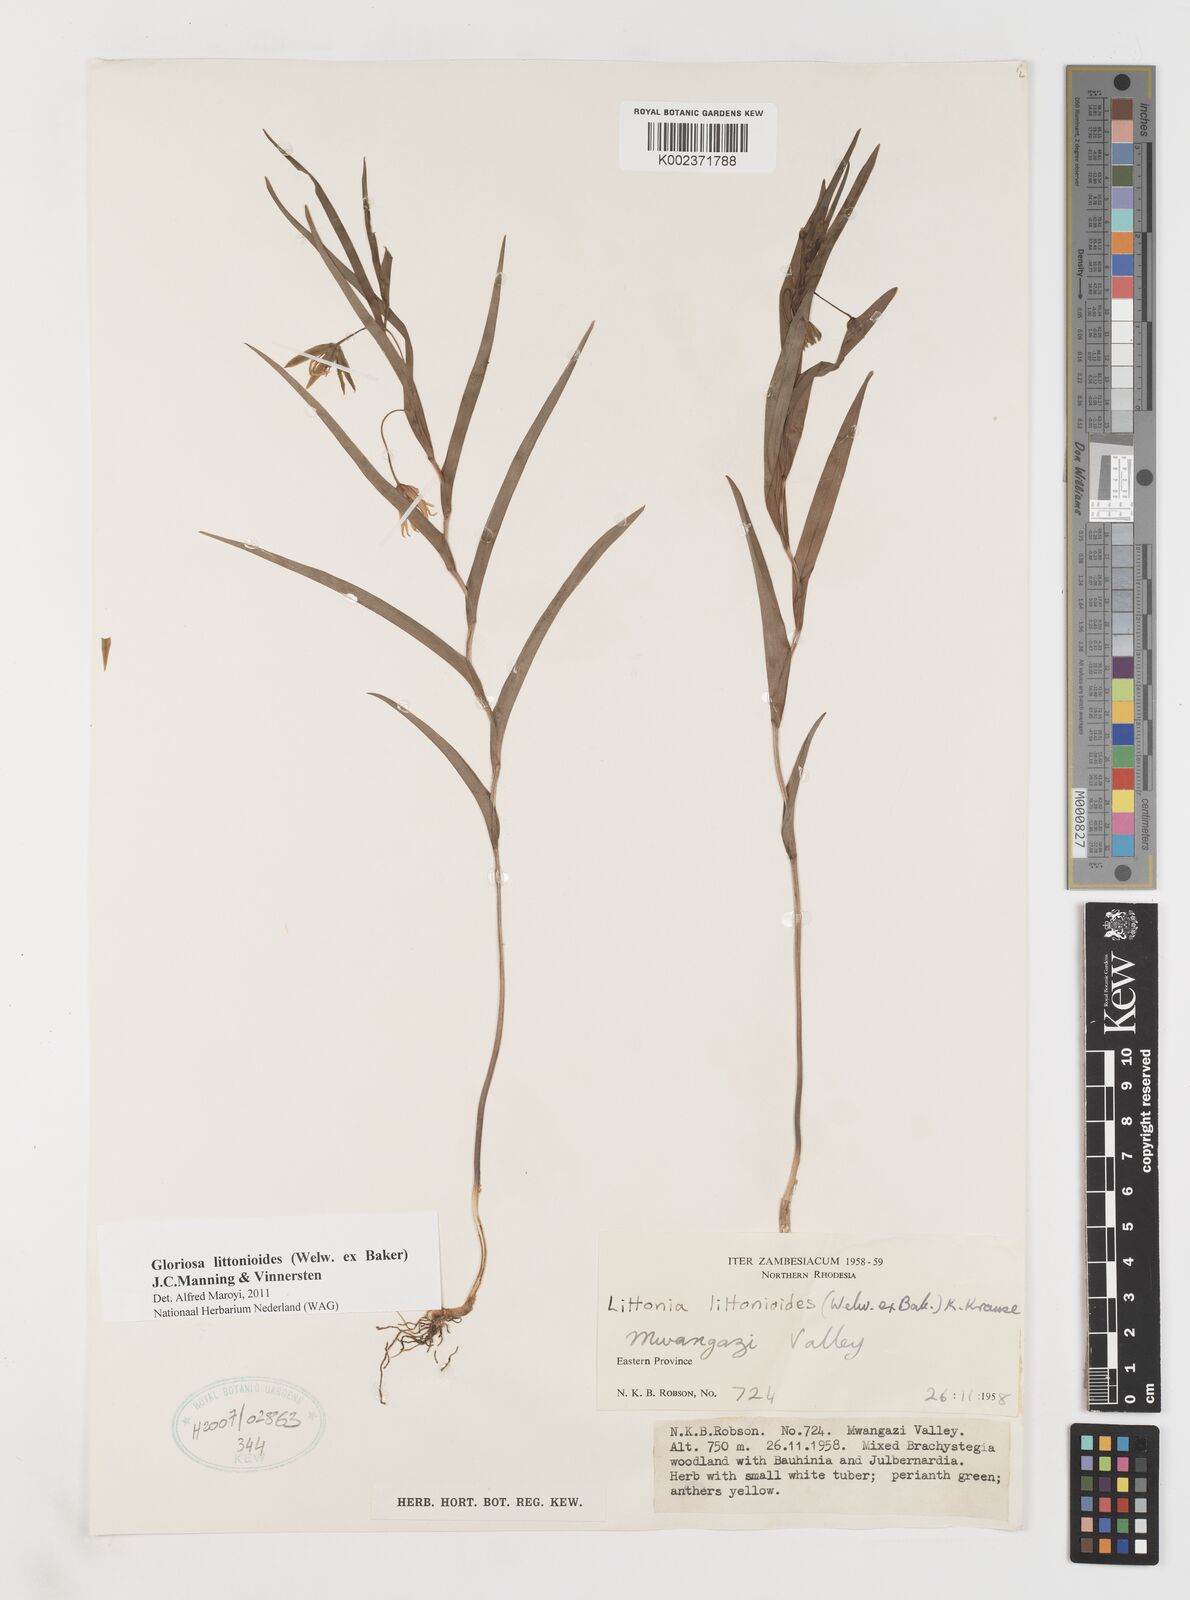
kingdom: Plantae
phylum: Tracheophyta
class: Liliopsida
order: Liliales
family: Colchicaceae
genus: Gloriosa
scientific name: Gloriosa littonioides
